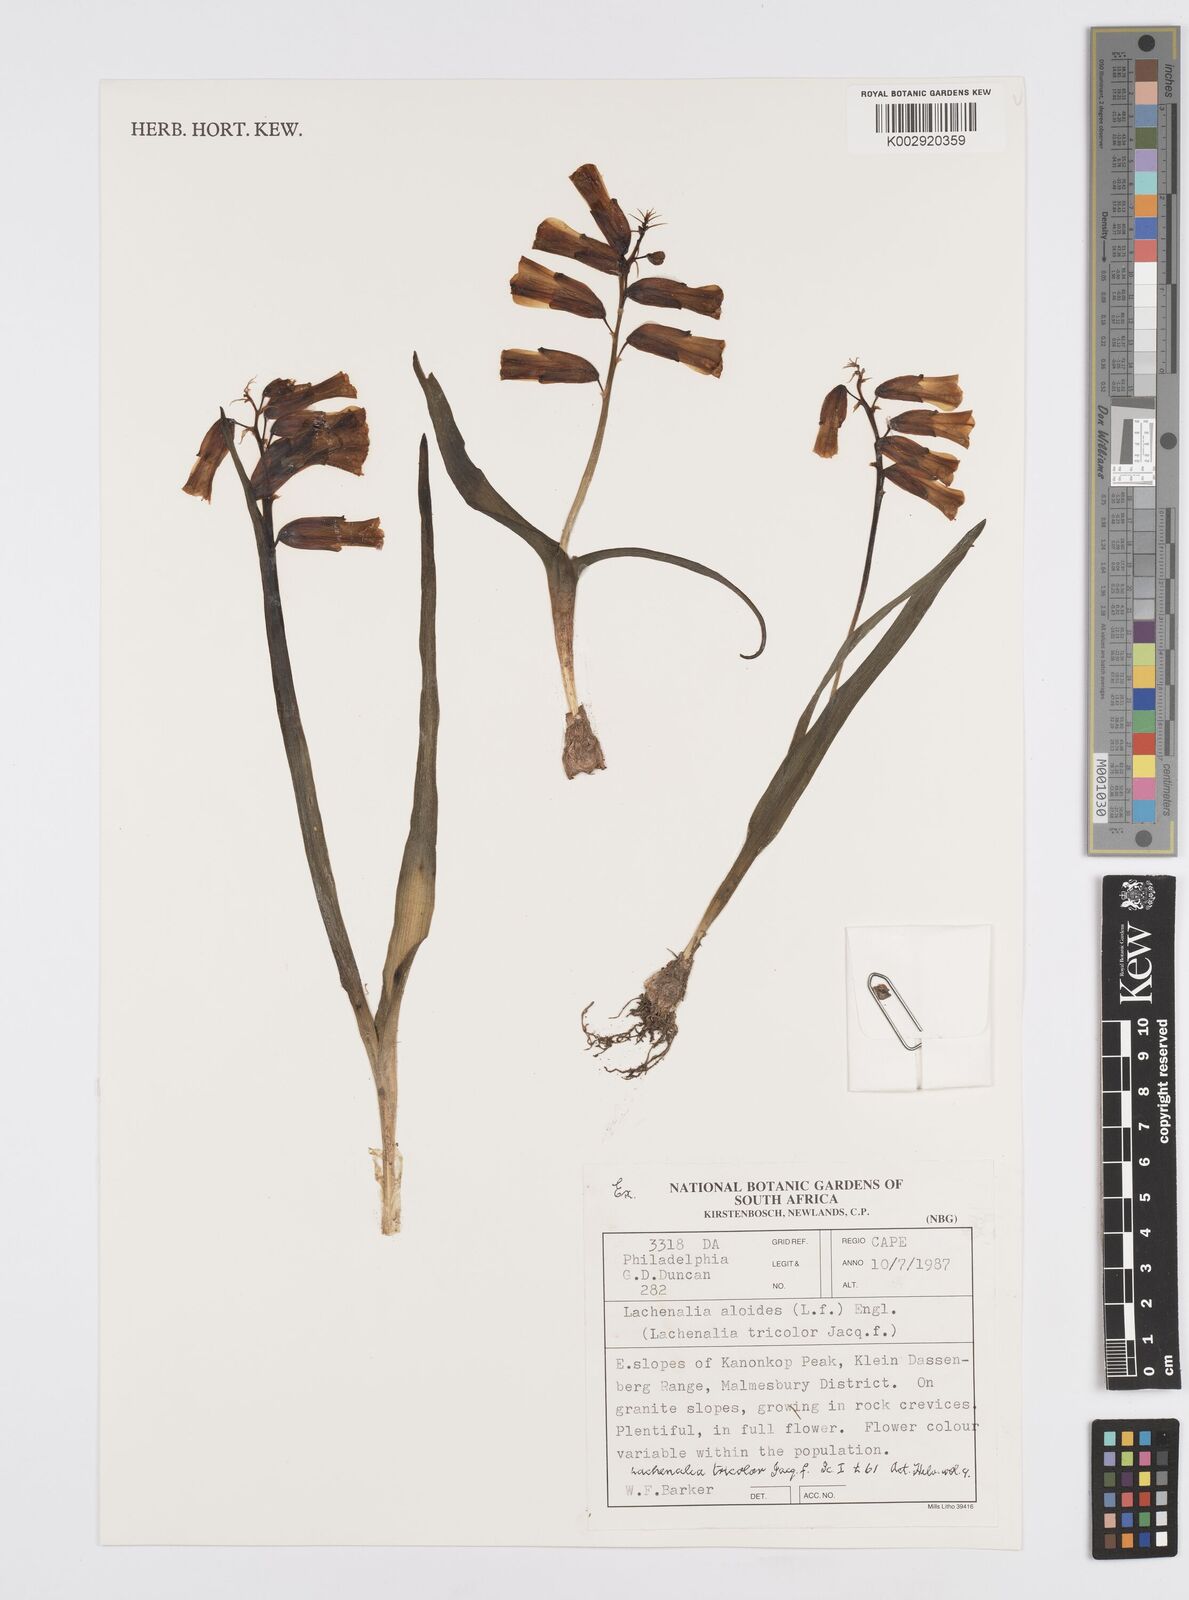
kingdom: Plantae
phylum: Tracheophyta
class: Liliopsida
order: Asparagales
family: Asparagaceae
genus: Lachenalia
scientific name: Lachenalia aloides
